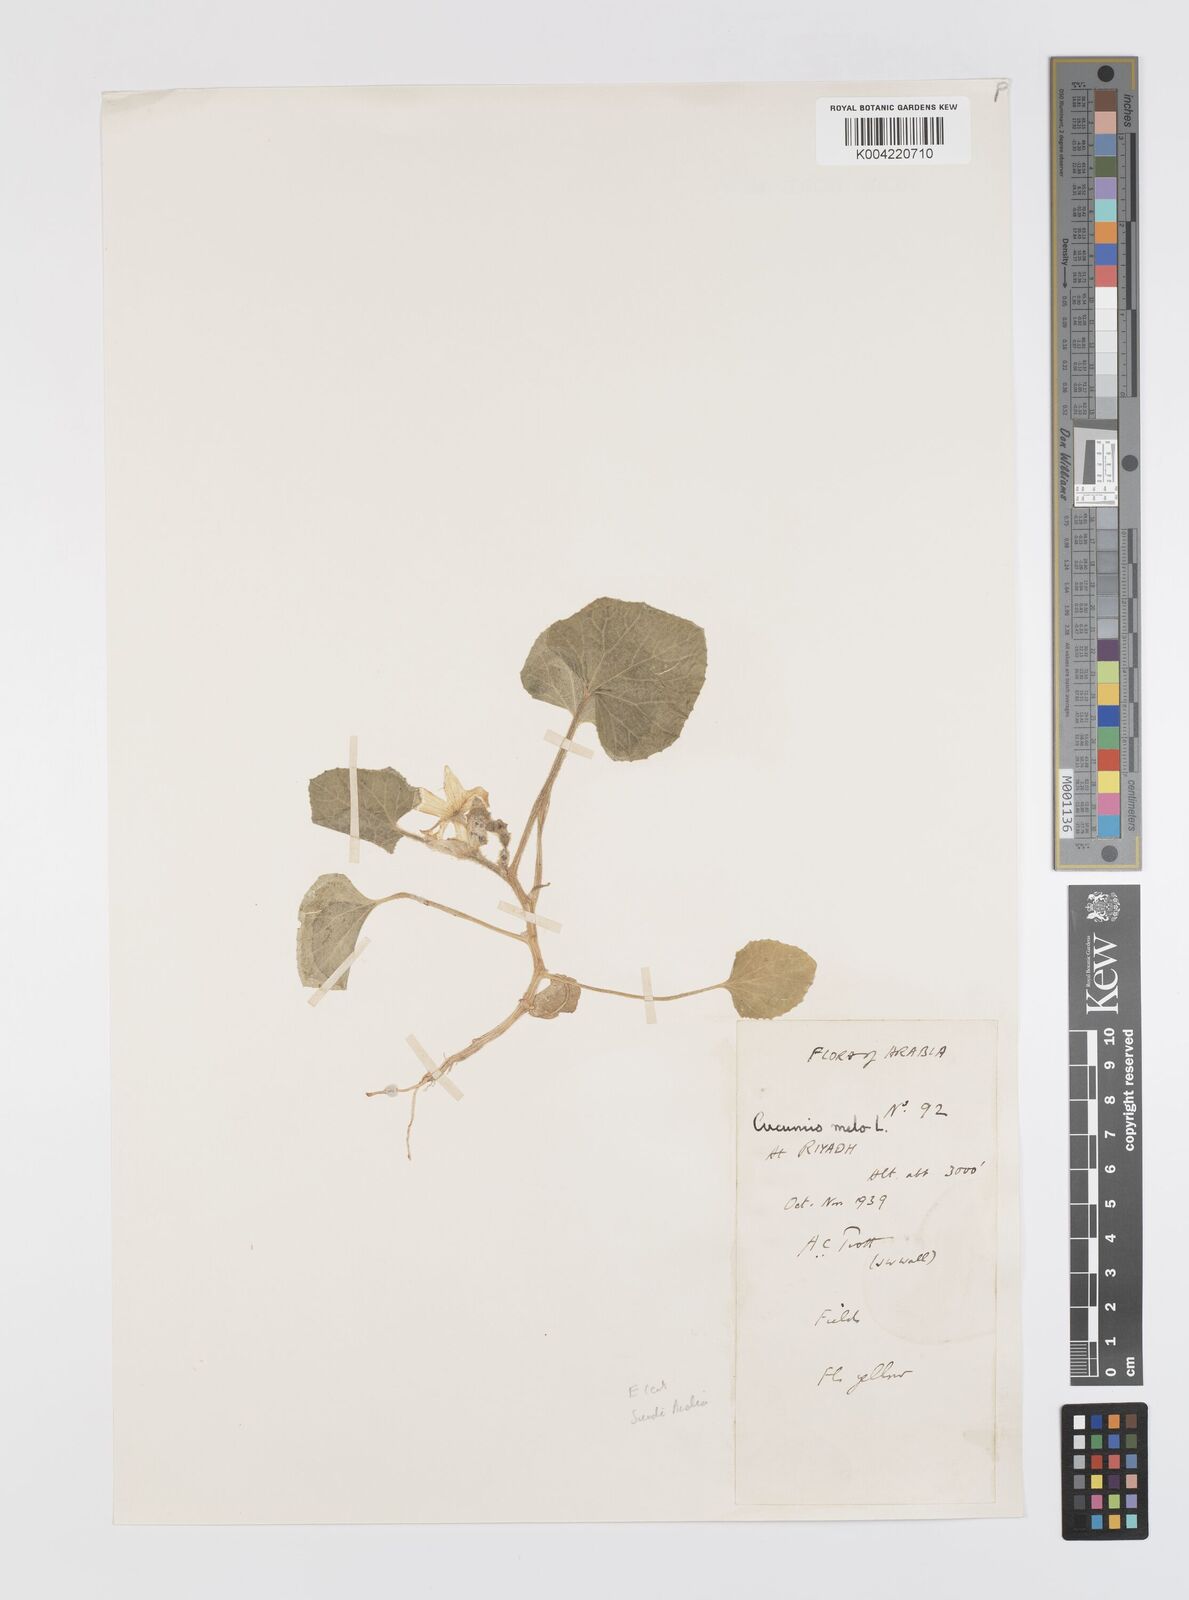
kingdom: Plantae
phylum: Tracheophyta
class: Magnoliopsida
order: Cucurbitales
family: Cucurbitaceae
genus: Cucumis
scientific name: Cucumis melo
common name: Melon
